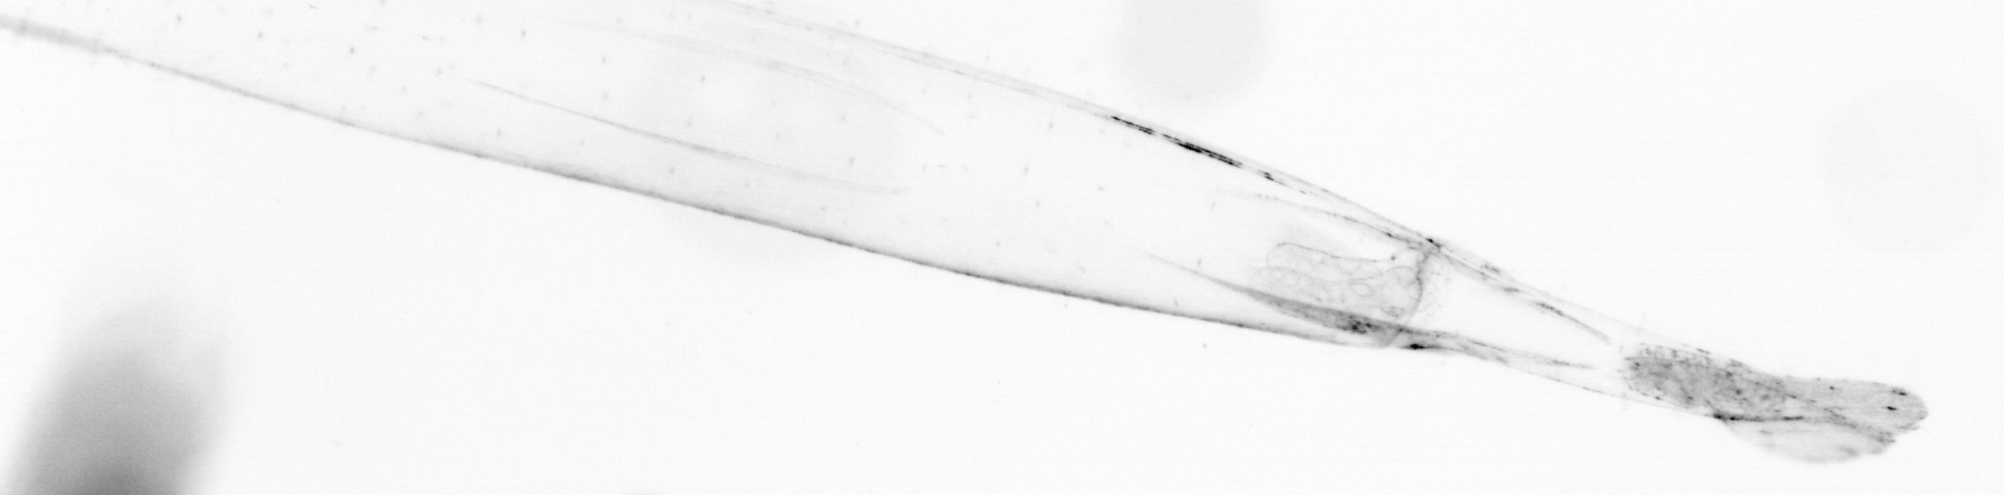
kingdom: Animalia
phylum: Chaetognatha
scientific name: Chaetognatha
